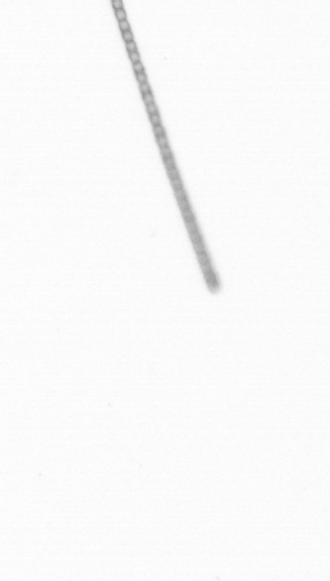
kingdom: Chromista
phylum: Ochrophyta
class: Bacillariophyceae
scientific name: Bacillariophyceae
